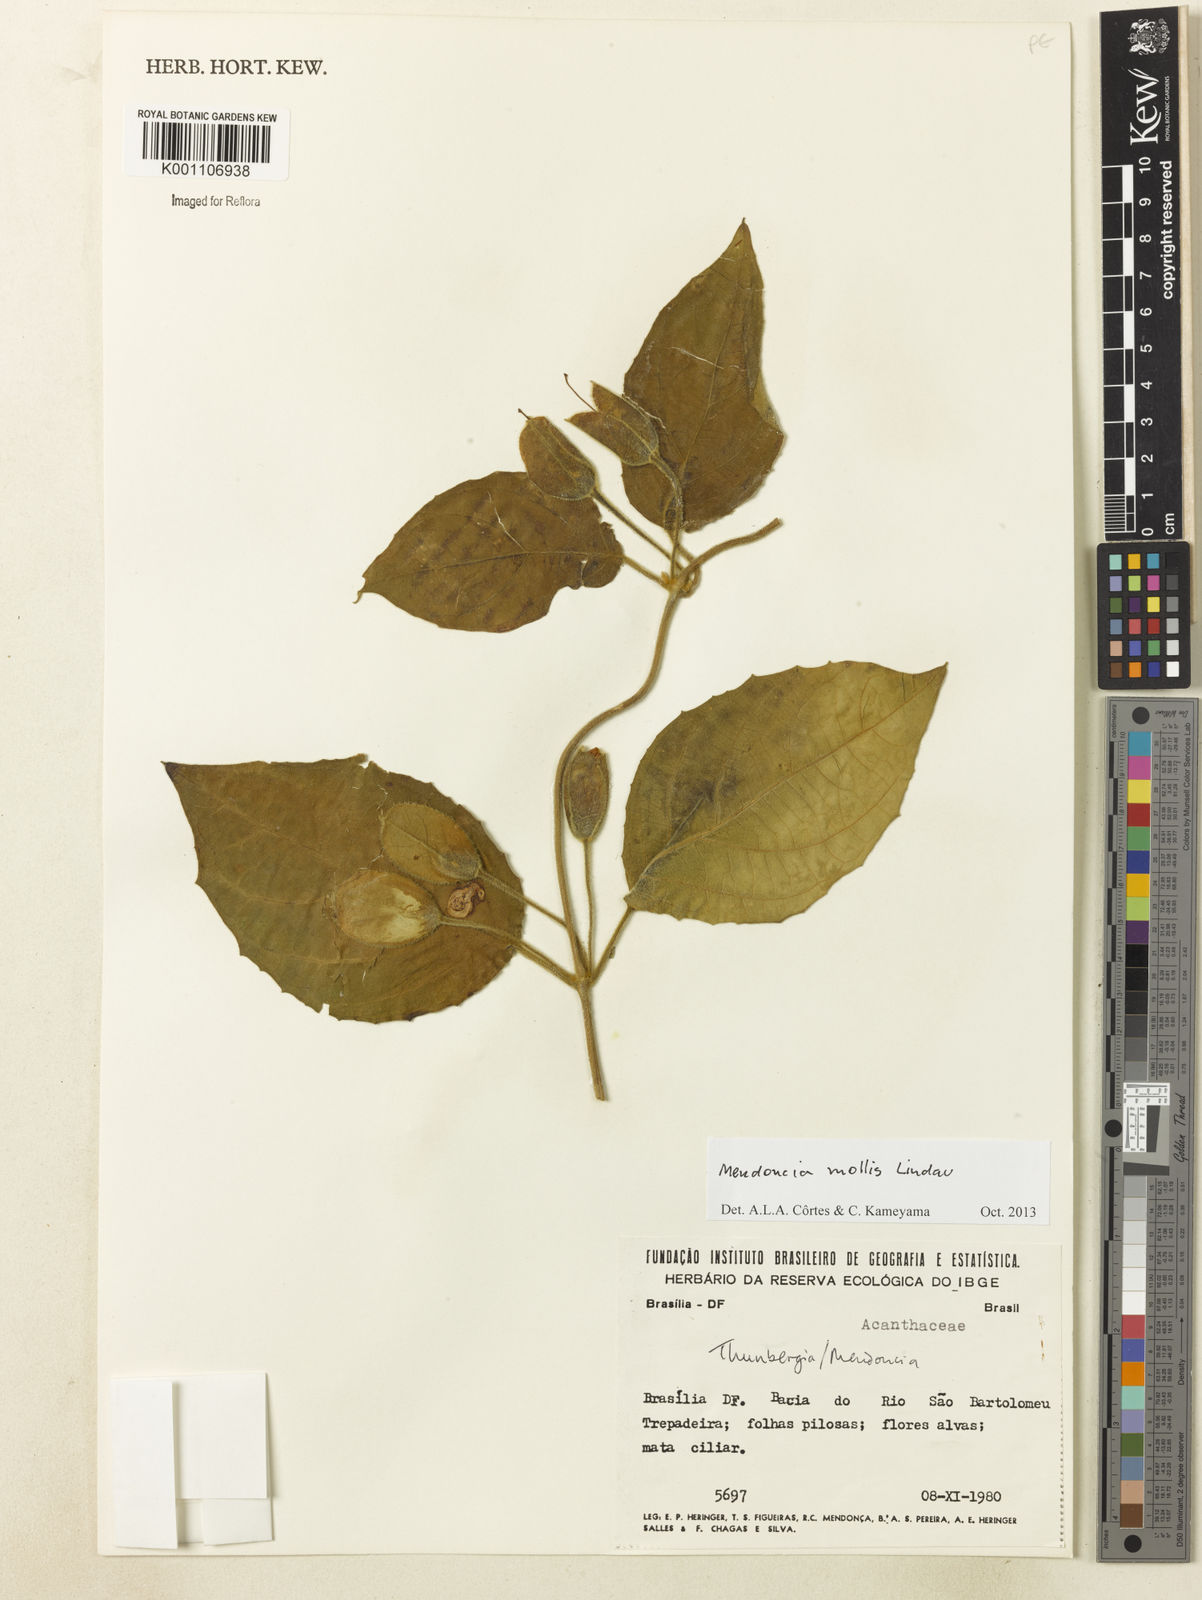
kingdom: Plantae
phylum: Tracheophyta
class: Magnoliopsida
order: Lamiales
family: Acanthaceae
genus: Mendoncia
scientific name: Mendoncia mollis
